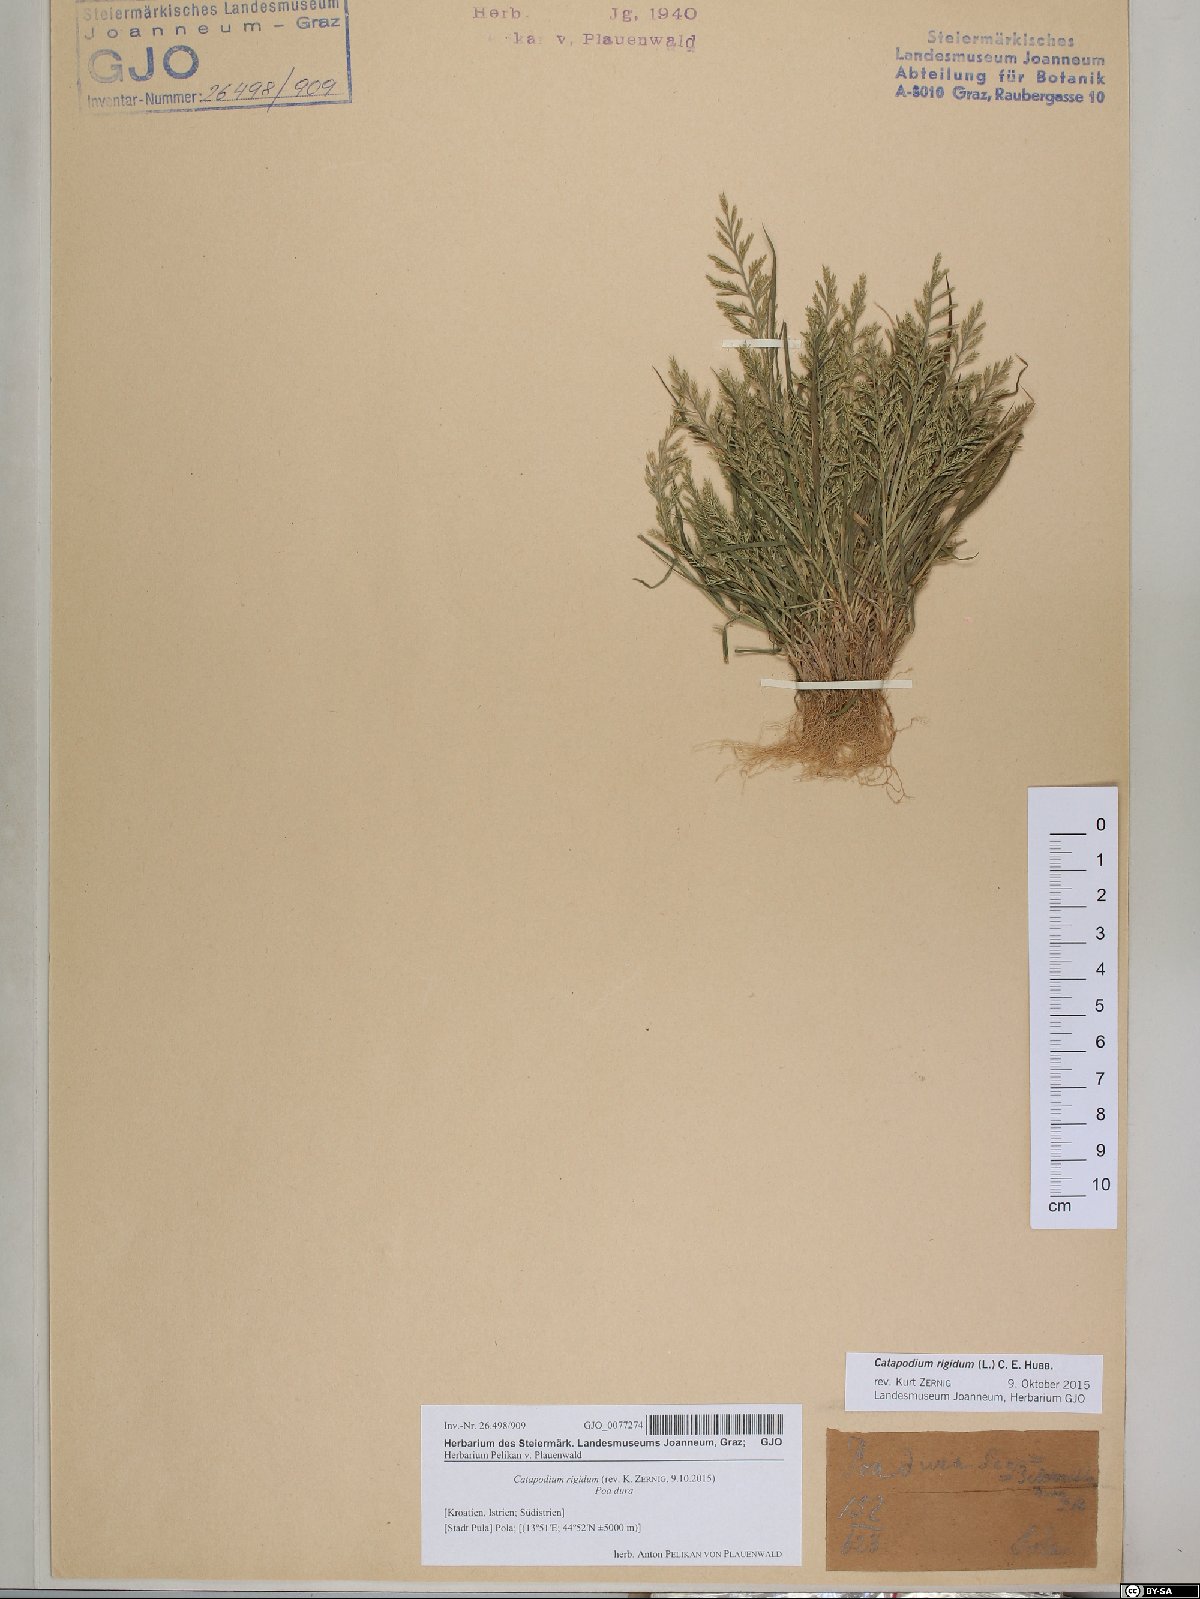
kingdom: Plantae
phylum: Tracheophyta
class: Liliopsida
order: Poales
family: Poaceae
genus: Catapodium
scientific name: Catapodium rigidum
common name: Fern-grass
